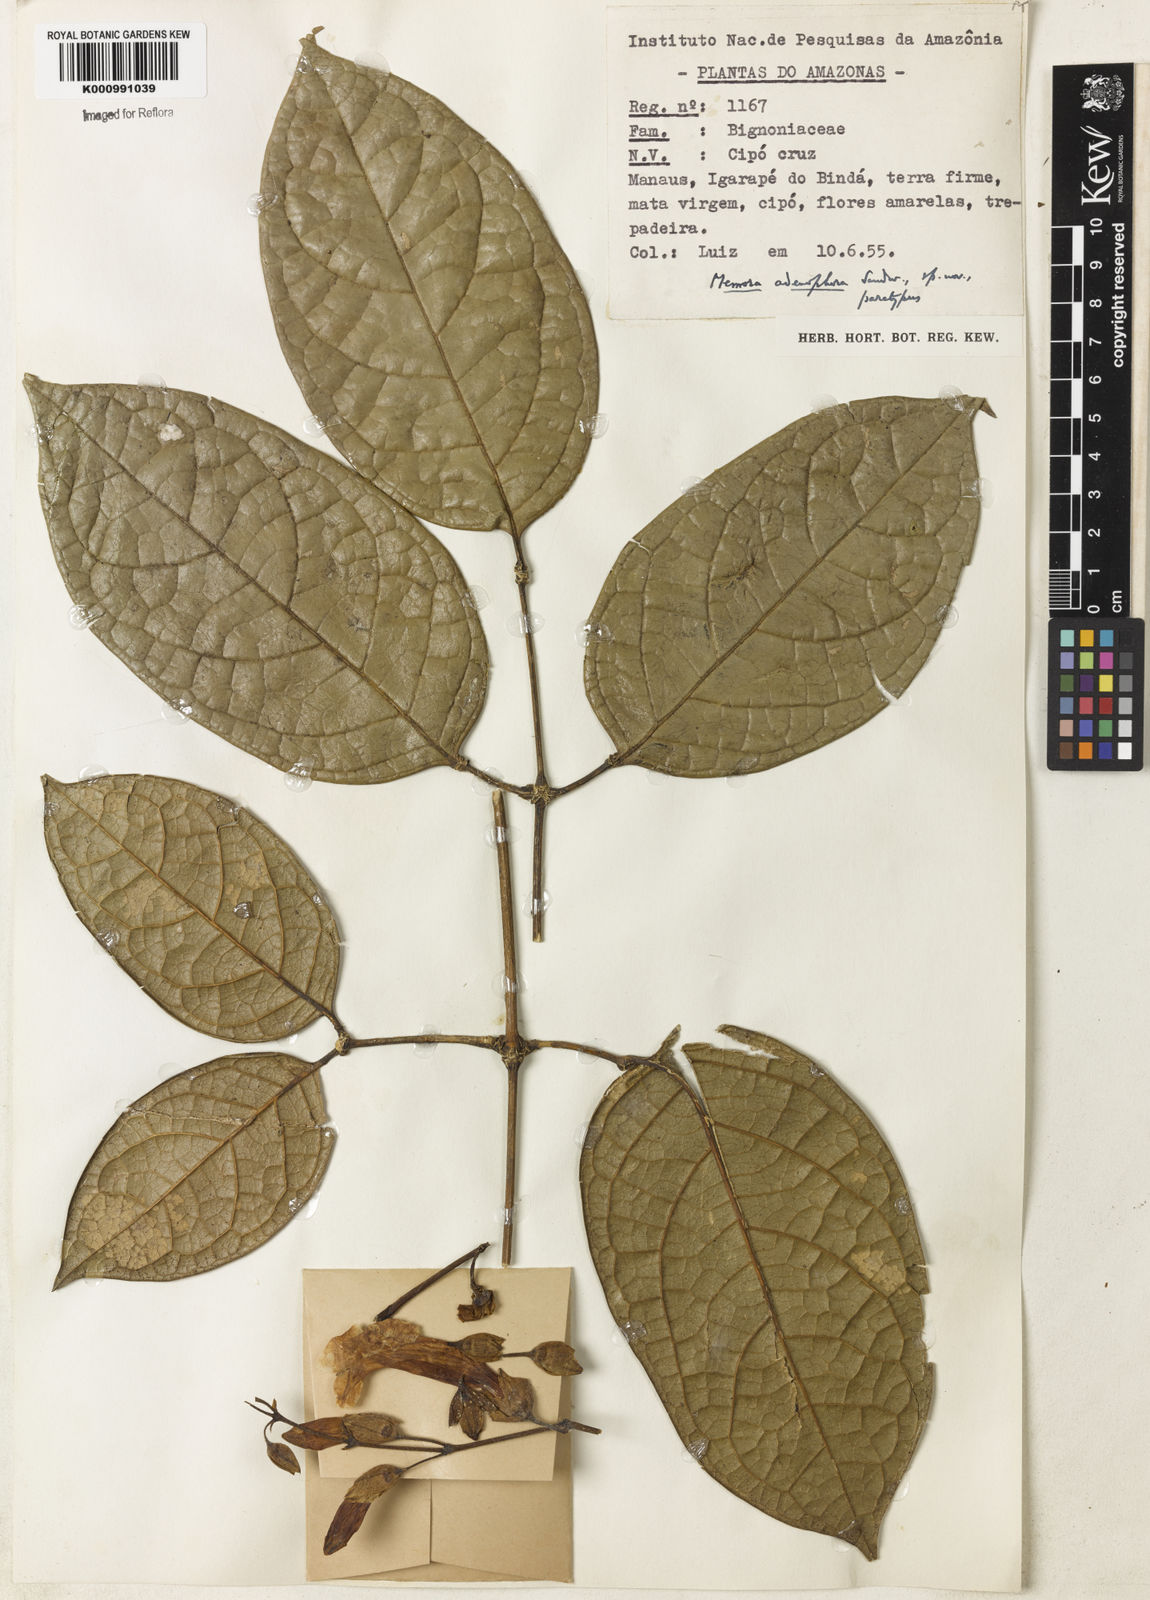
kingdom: Plantae
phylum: Tracheophyta
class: Magnoliopsida
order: Lamiales
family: Bignoniaceae
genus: Adenocalymma
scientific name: Adenocalymma adenophorum
